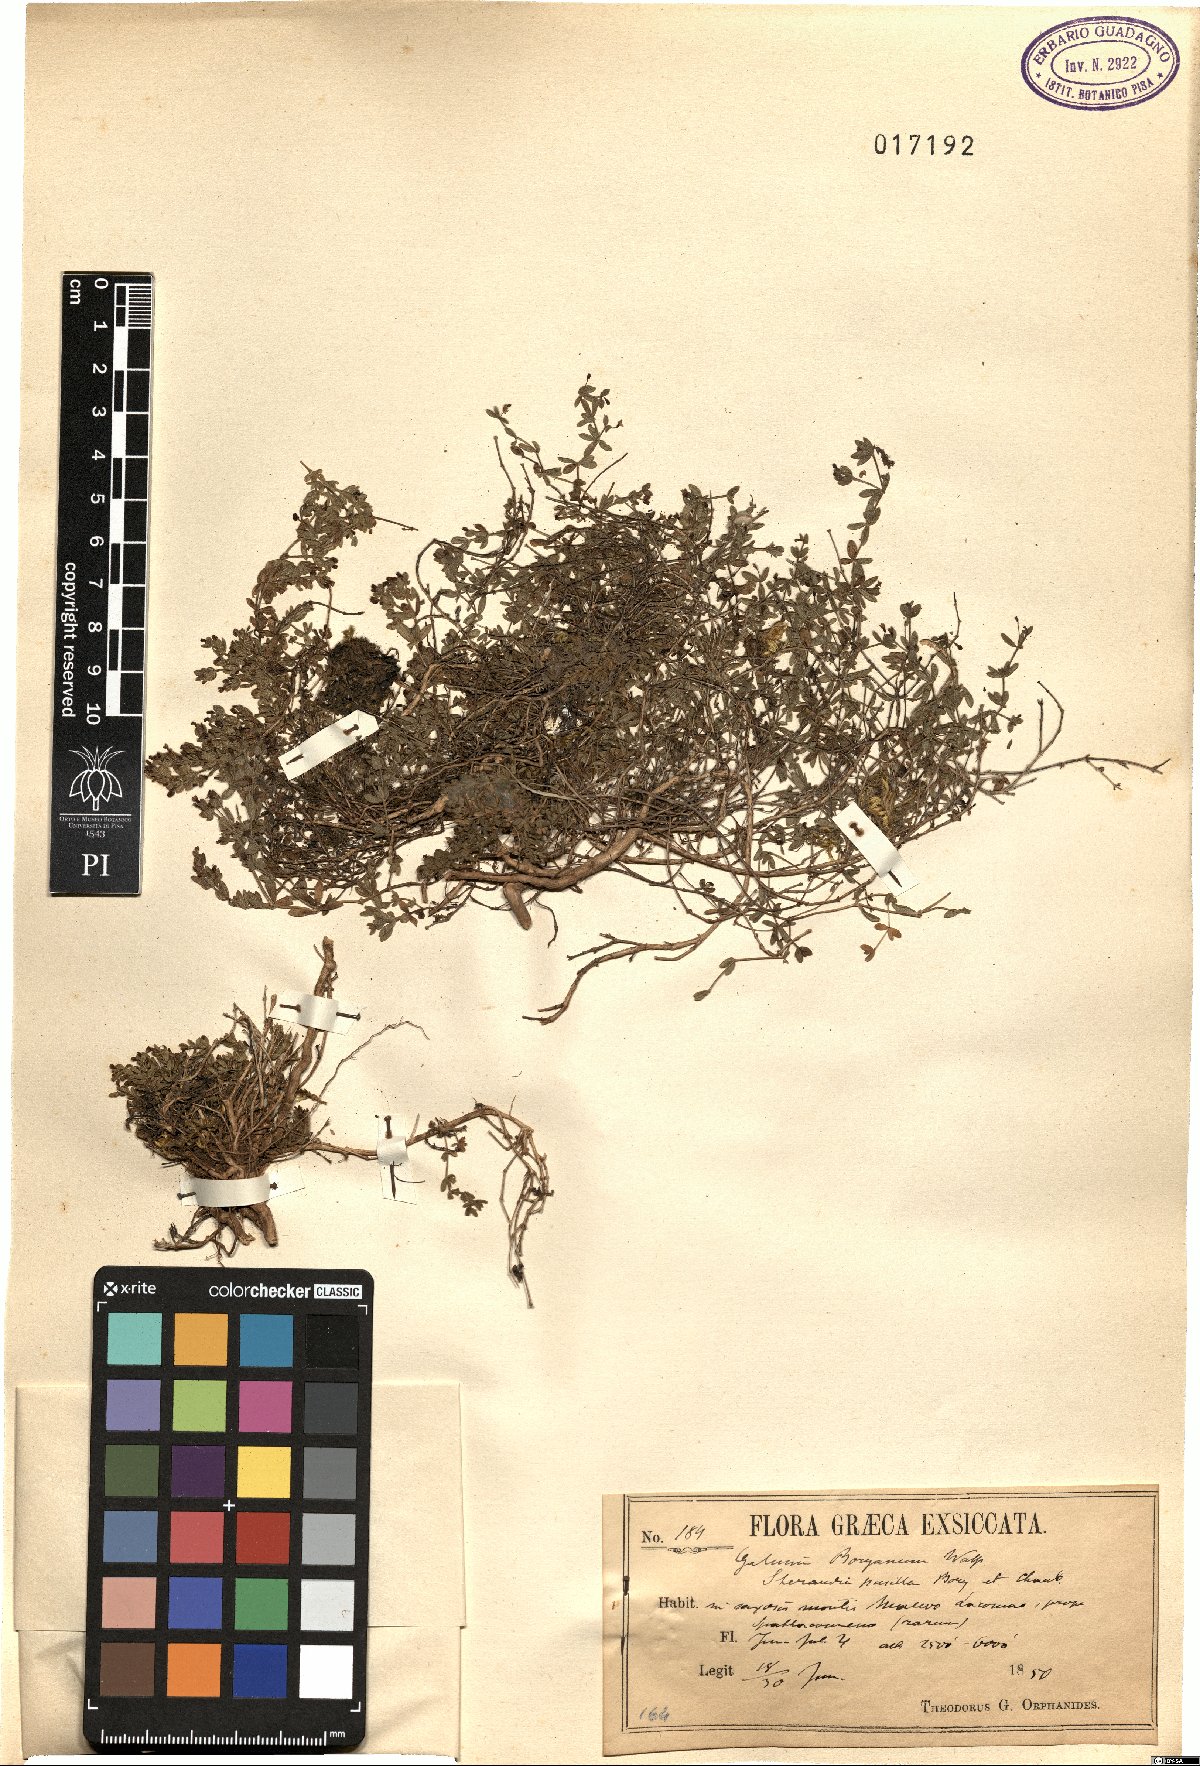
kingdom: Plantae
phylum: Tracheophyta
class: Magnoliopsida
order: Gentianales
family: Rubiaceae
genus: Thliphthisa
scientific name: Thliphthisa pusilla
